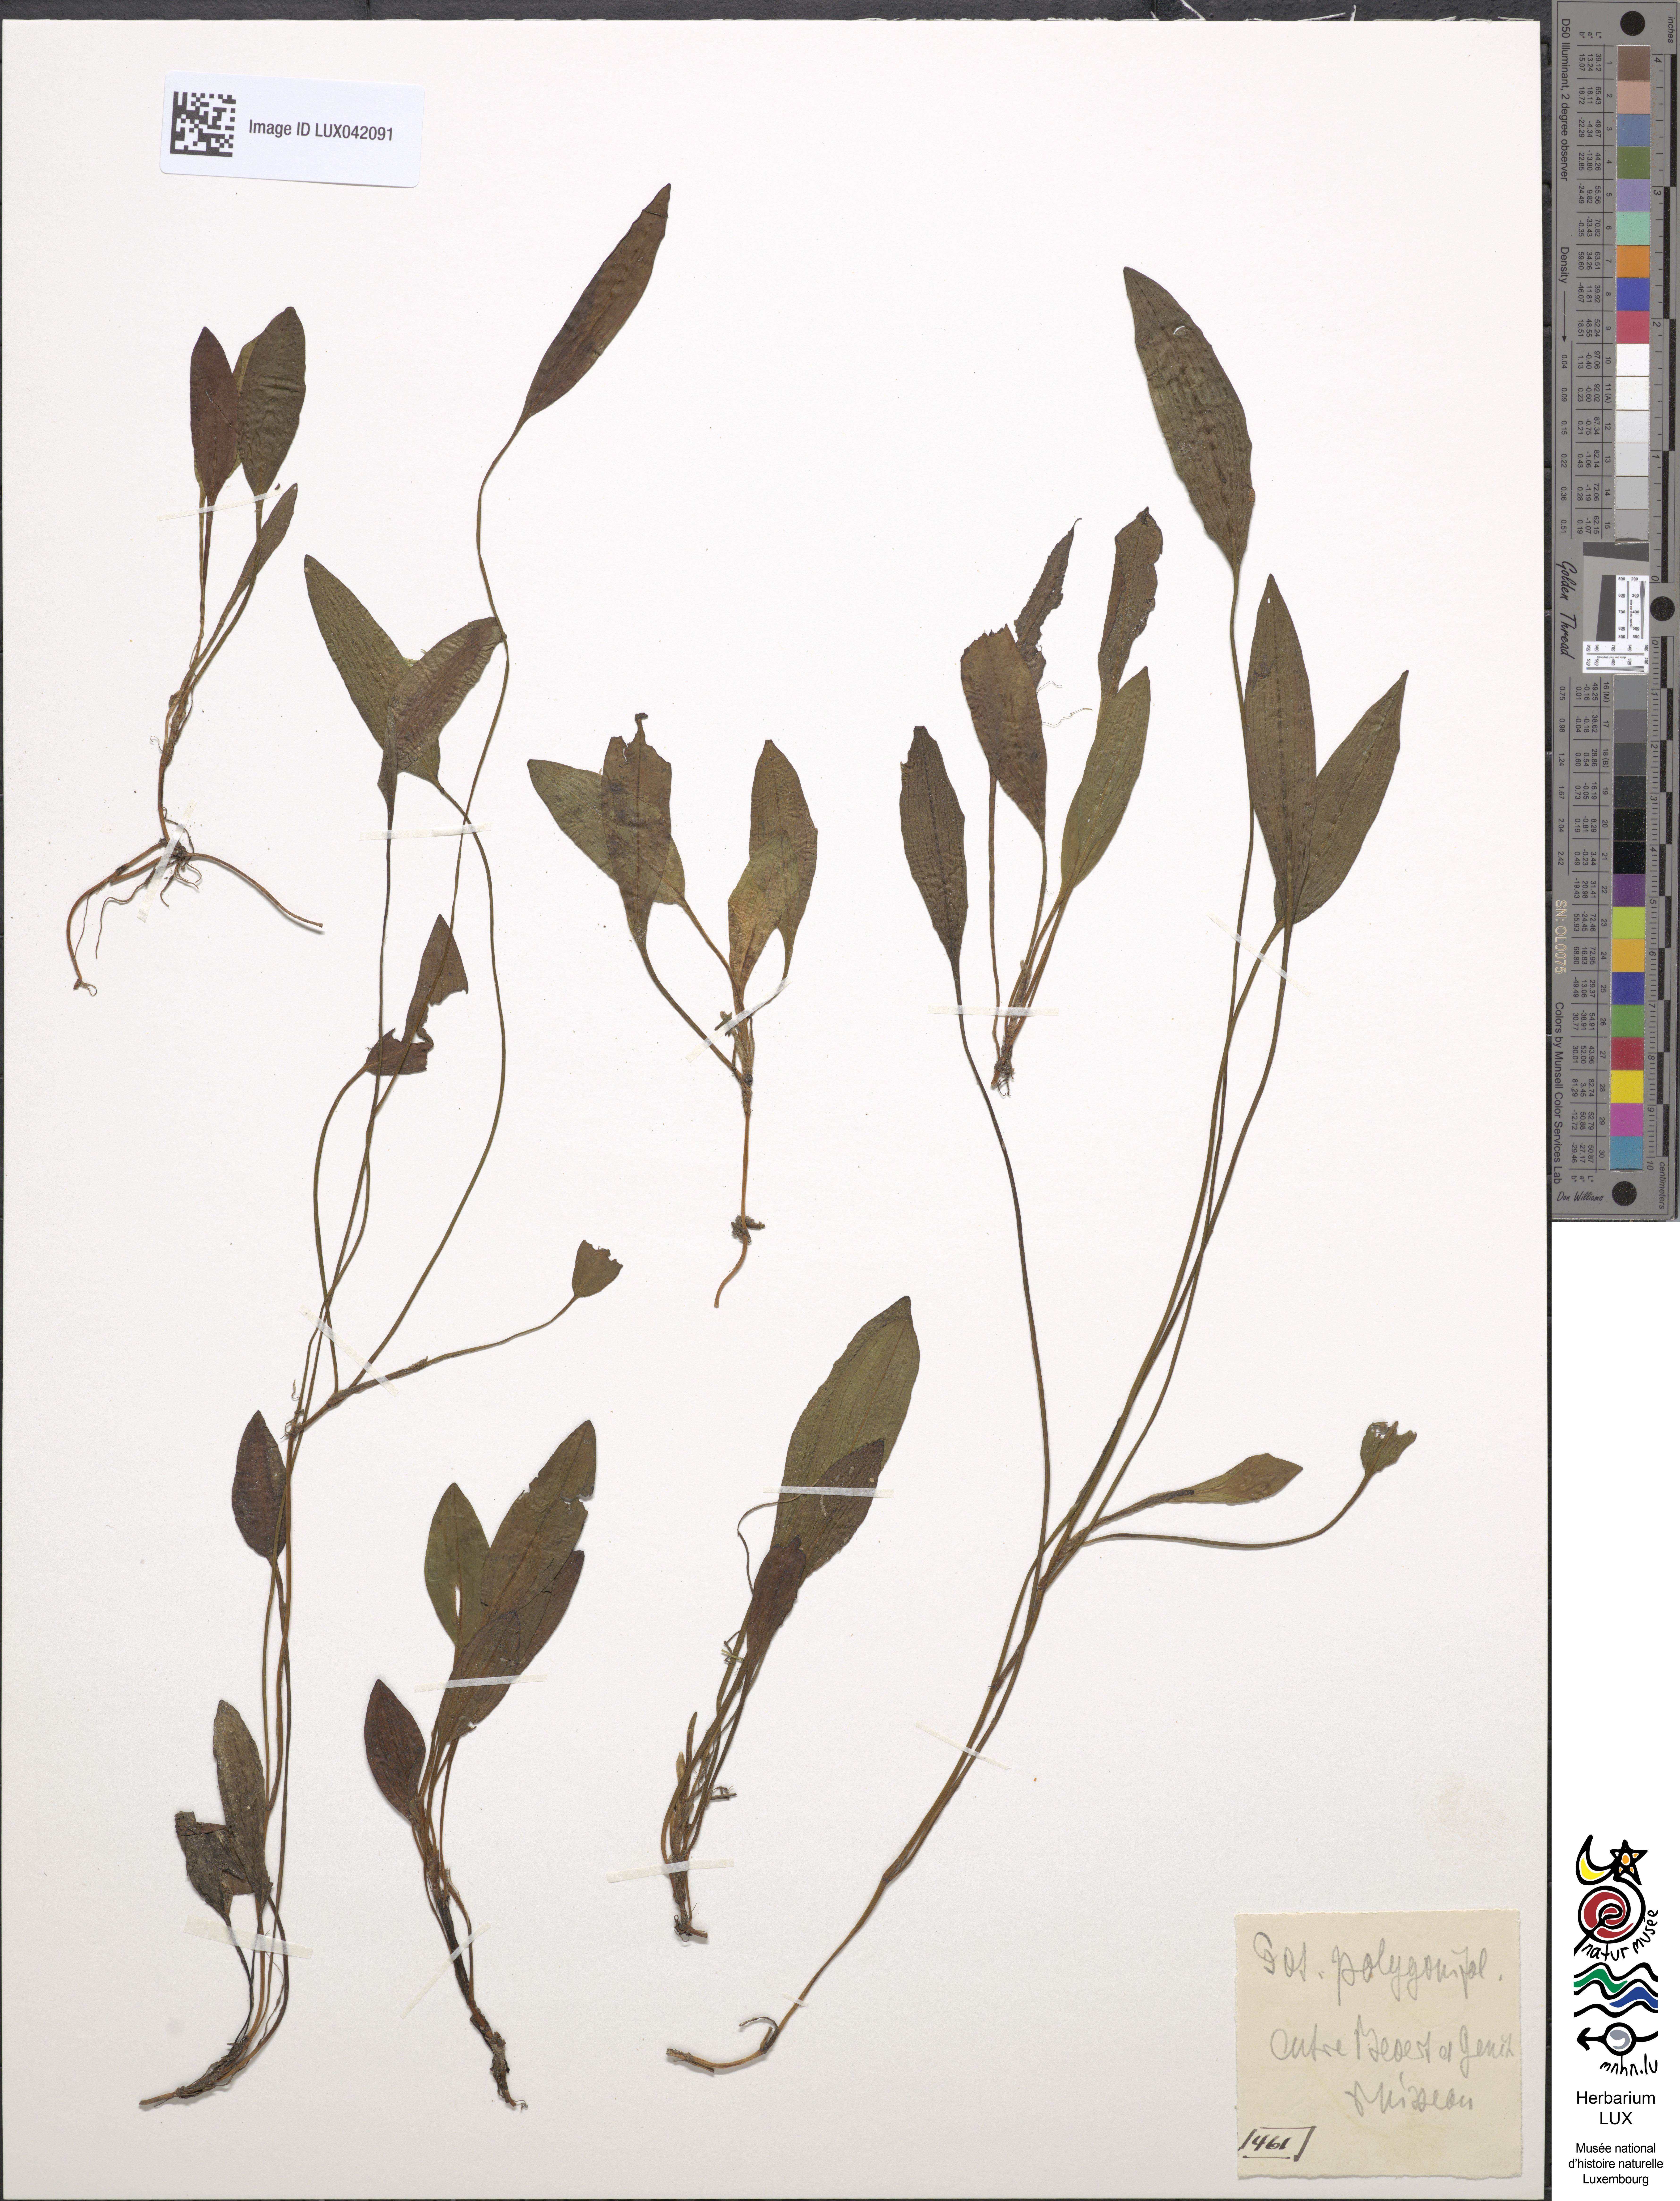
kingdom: Plantae
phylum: Tracheophyta
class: Liliopsida
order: Alismatales
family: Potamogetonaceae
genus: Potamogeton
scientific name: Potamogeton polygonifolius
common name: Bog pondweed
